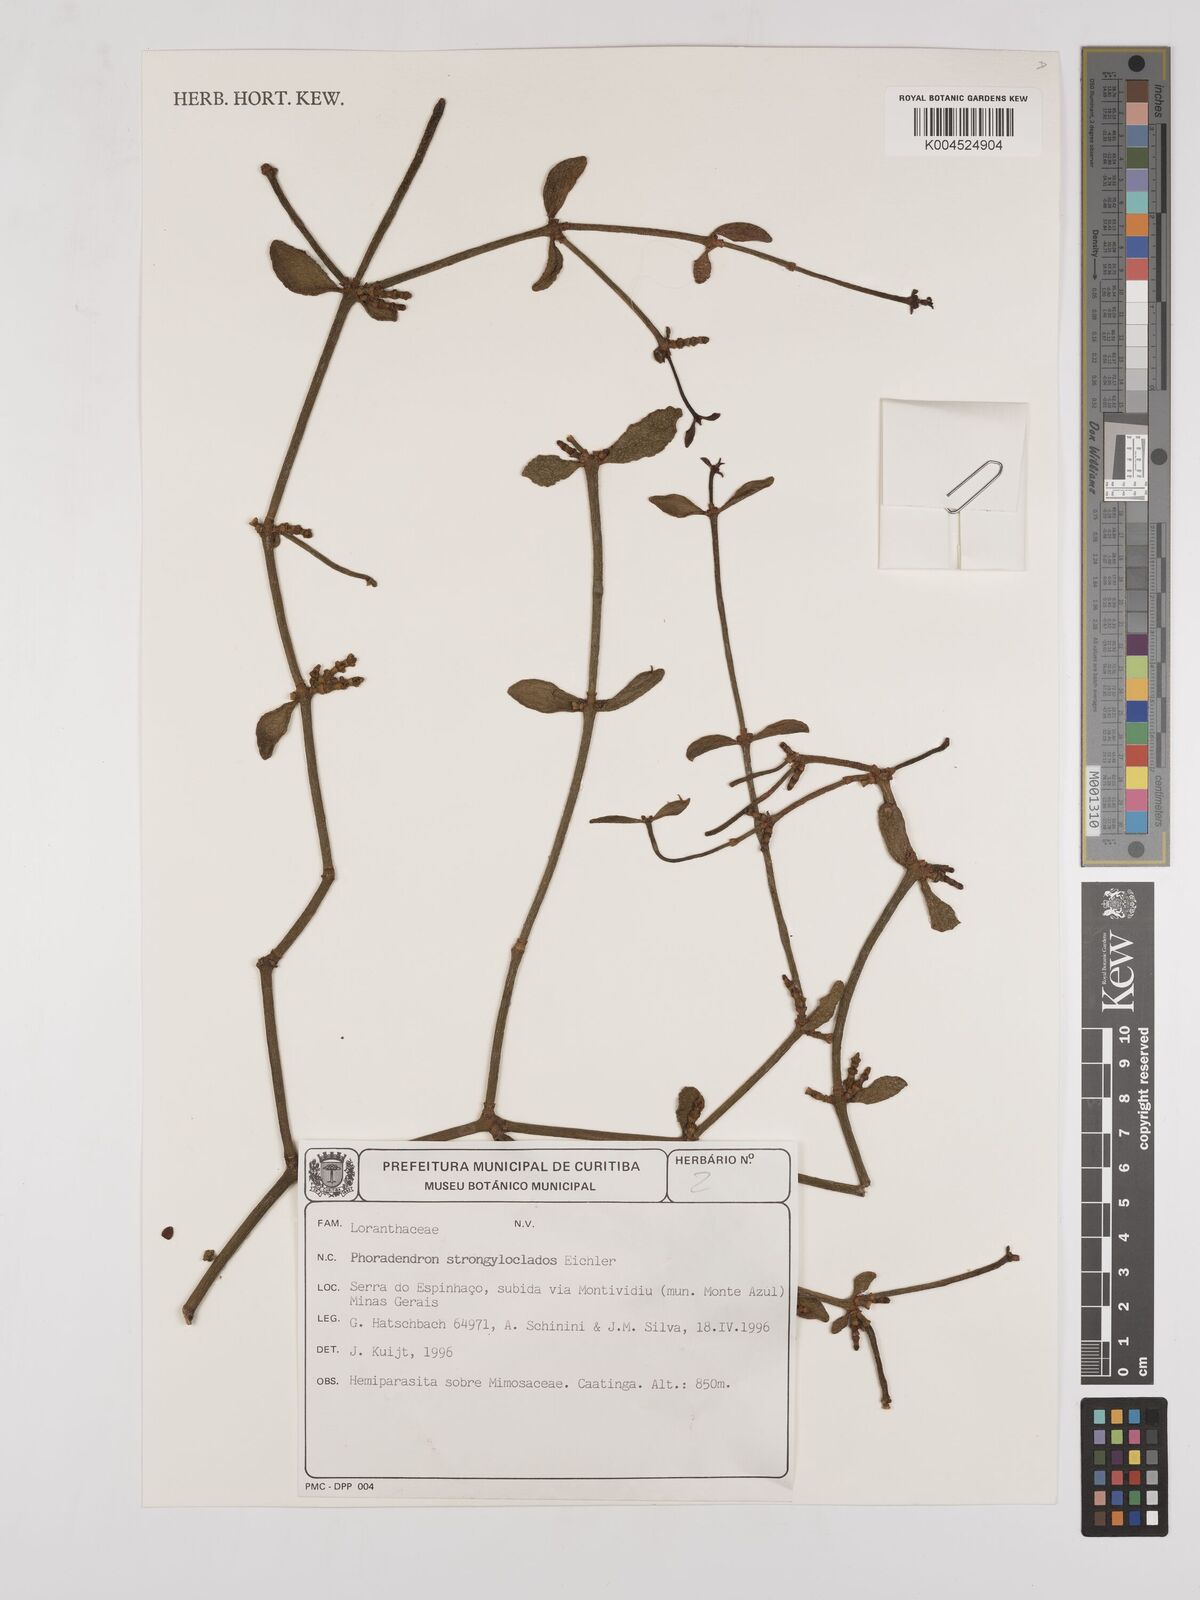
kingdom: Plantae
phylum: Tracheophyta
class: Magnoliopsida
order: Santalales
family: Viscaceae
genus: Phoradendron
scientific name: Phoradendron strongyloclados
